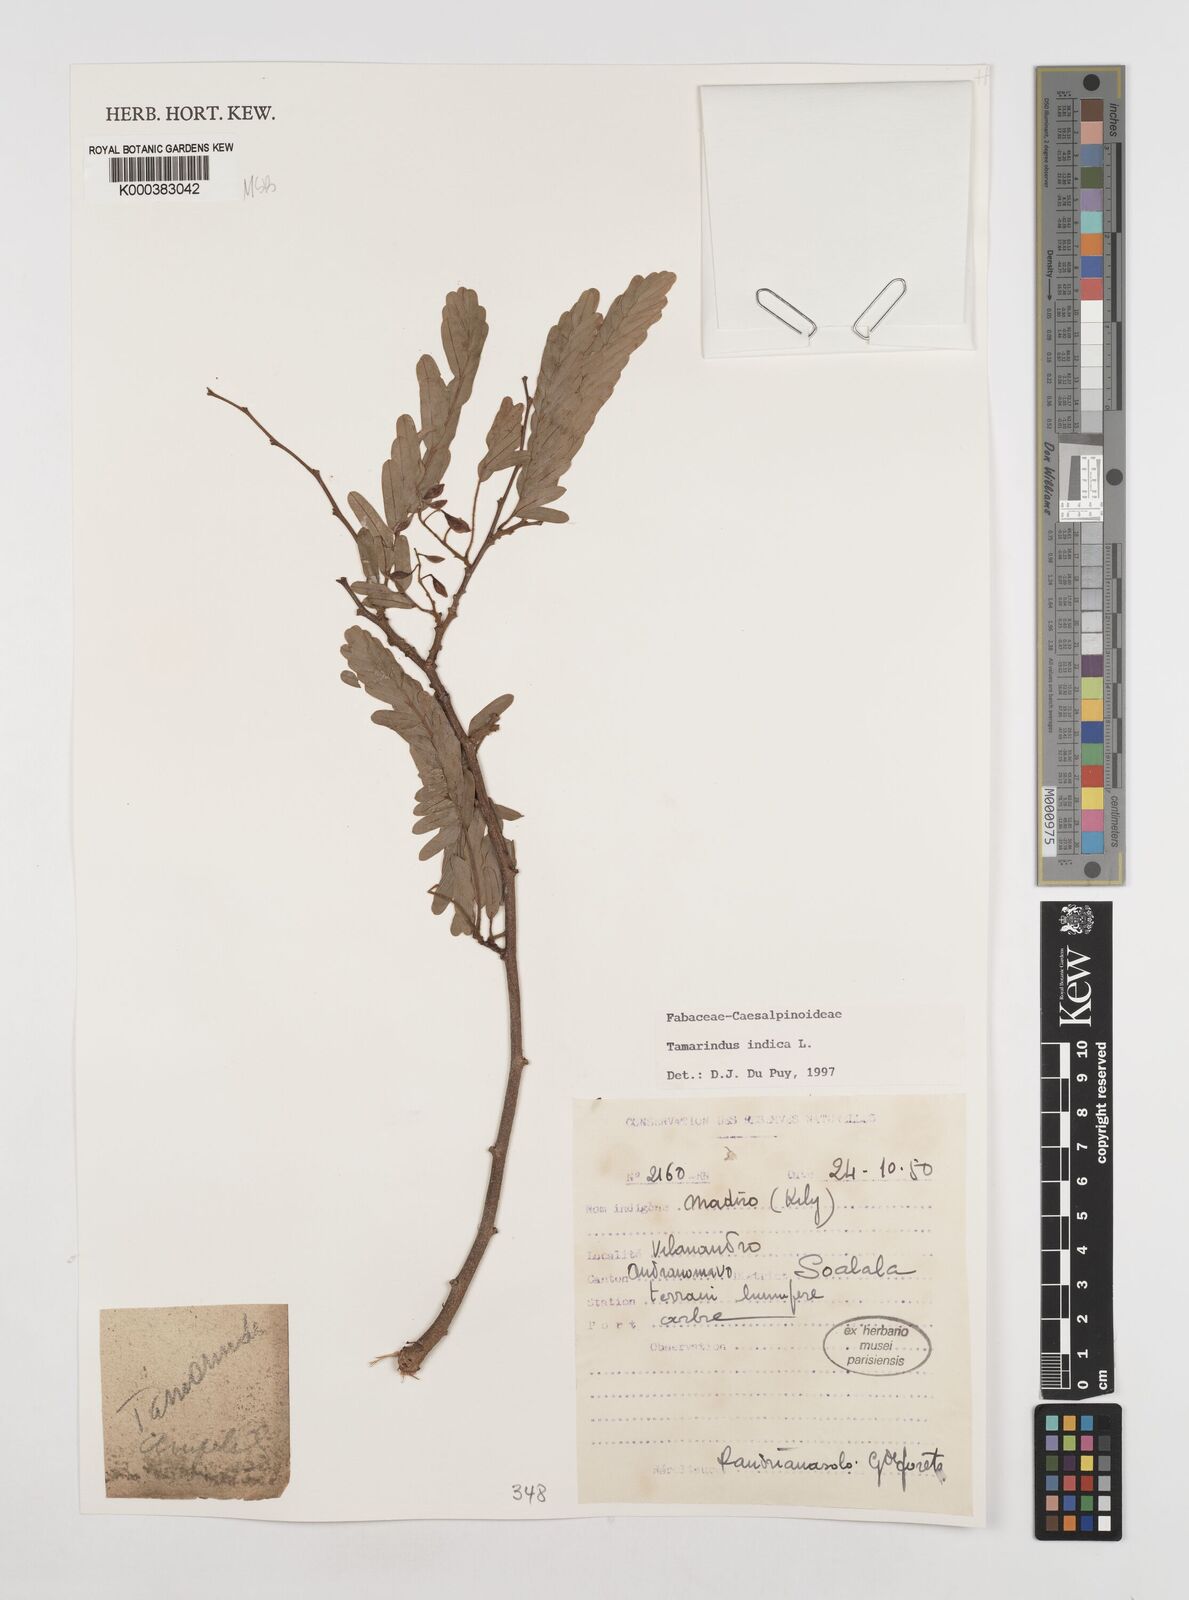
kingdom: Plantae
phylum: Tracheophyta
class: Magnoliopsida
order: Fabales
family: Fabaceae
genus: Tamarindus
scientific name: Tamarindus indica
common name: Tamarind
